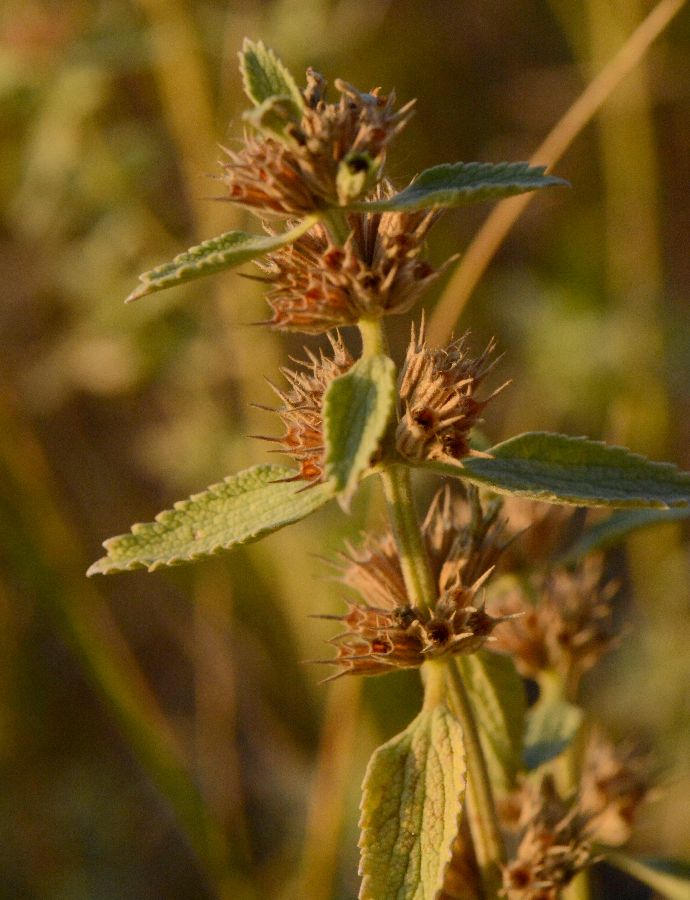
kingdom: Plantae
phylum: Tracheophyta
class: Magnoliopsida
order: Lamiales
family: Lamiaceae
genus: Marrubium
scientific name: Marrubium peregrinum
